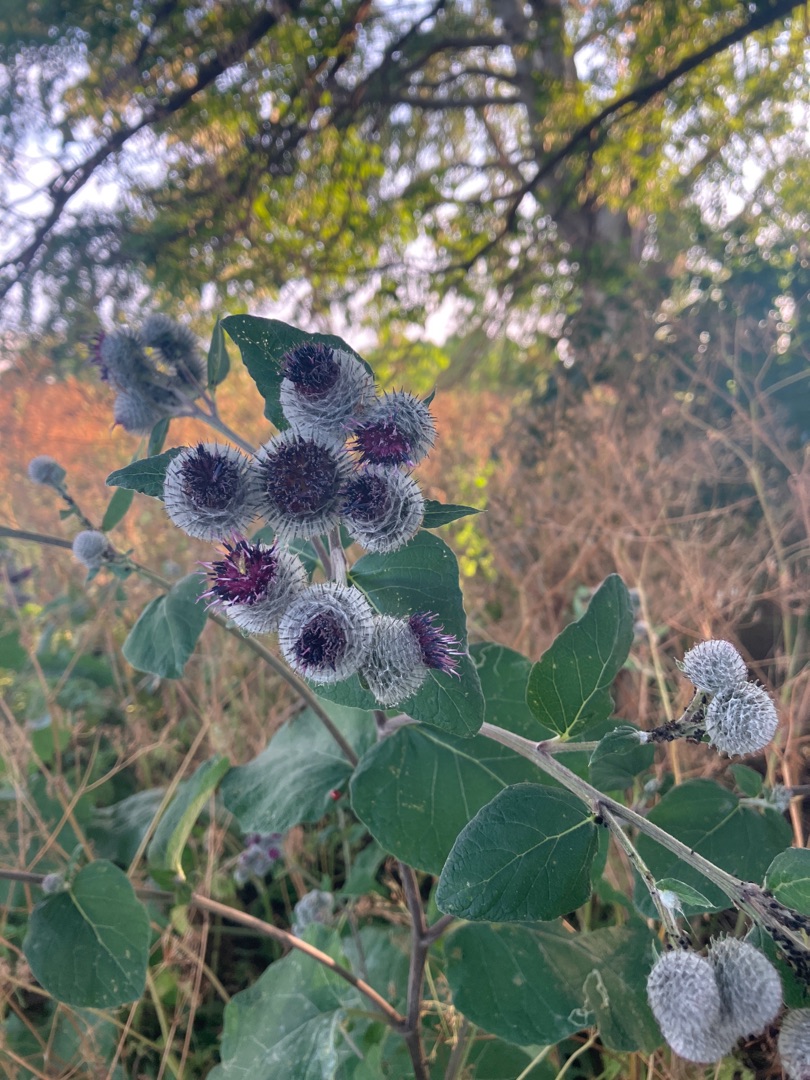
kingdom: Plantae
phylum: Tracheophyta
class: Magnoliopsida
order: Asterales
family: Asteraceae
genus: Arctium
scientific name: Arctium tomentosum
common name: Filtet burre
